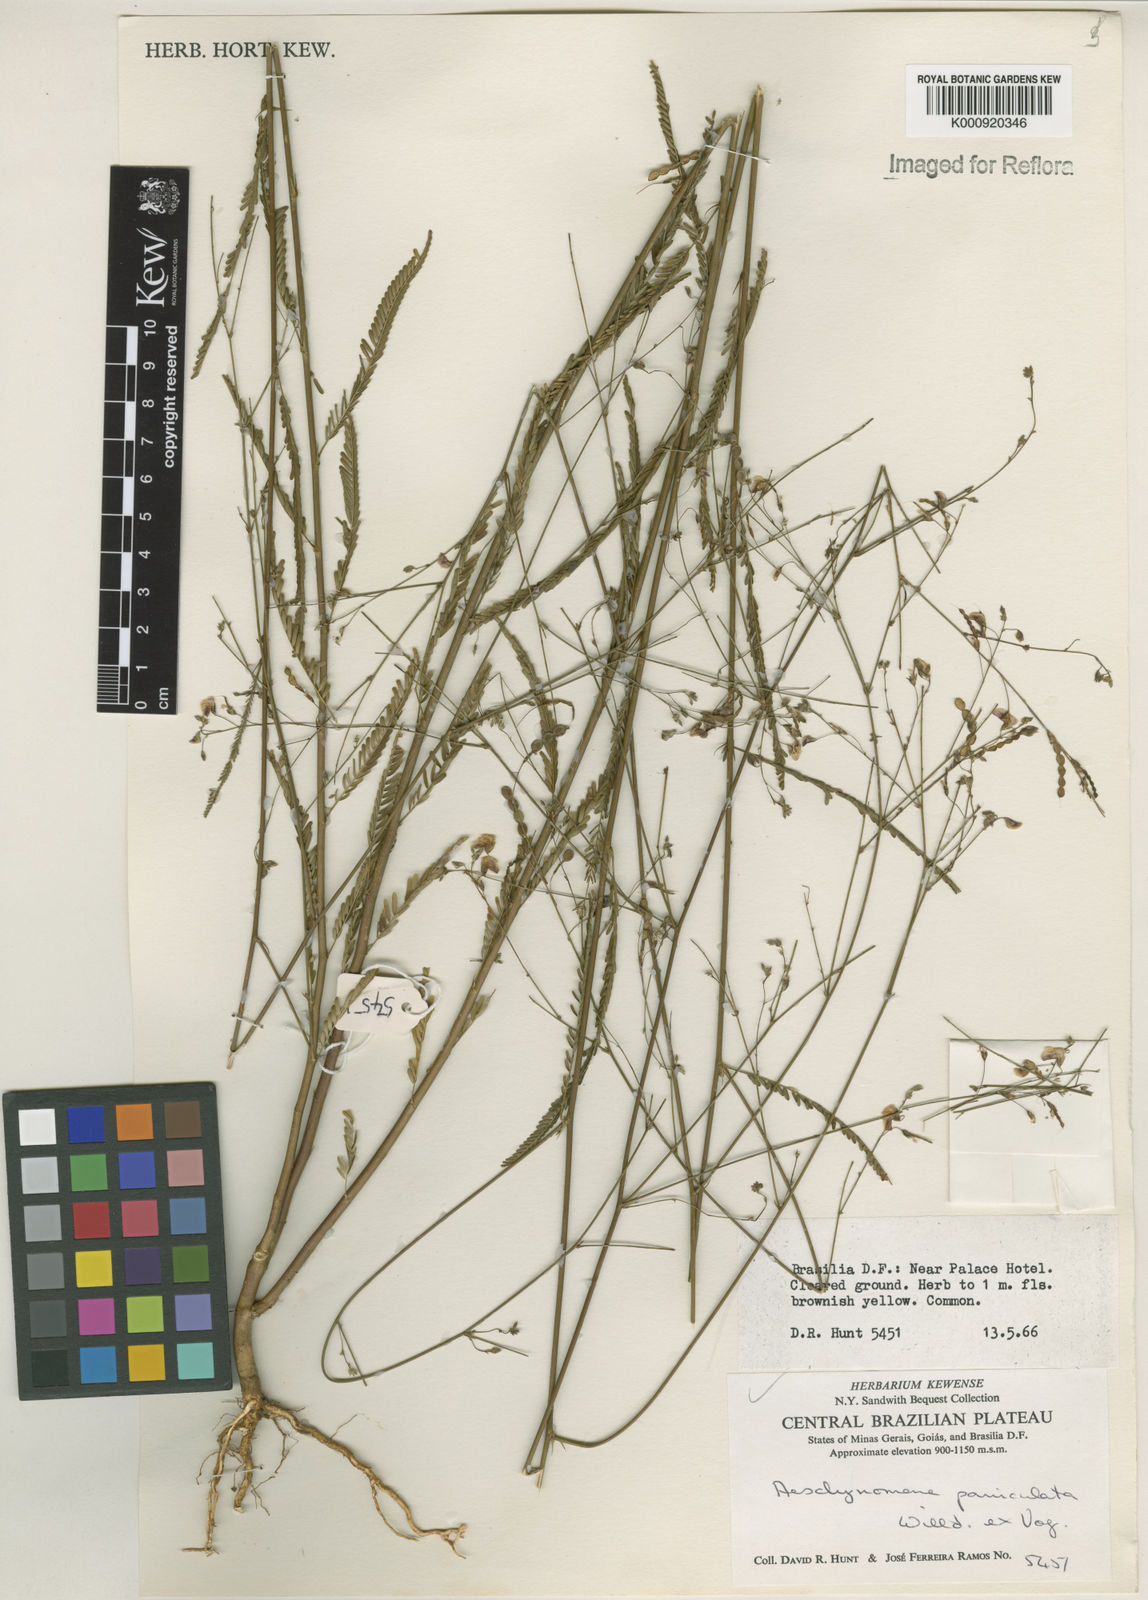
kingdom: Plantae
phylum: Tracheophyta
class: Magnoliopsida
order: Fabales
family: Fabaceae
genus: Ctenodon
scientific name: Ctenodon paniculatus
